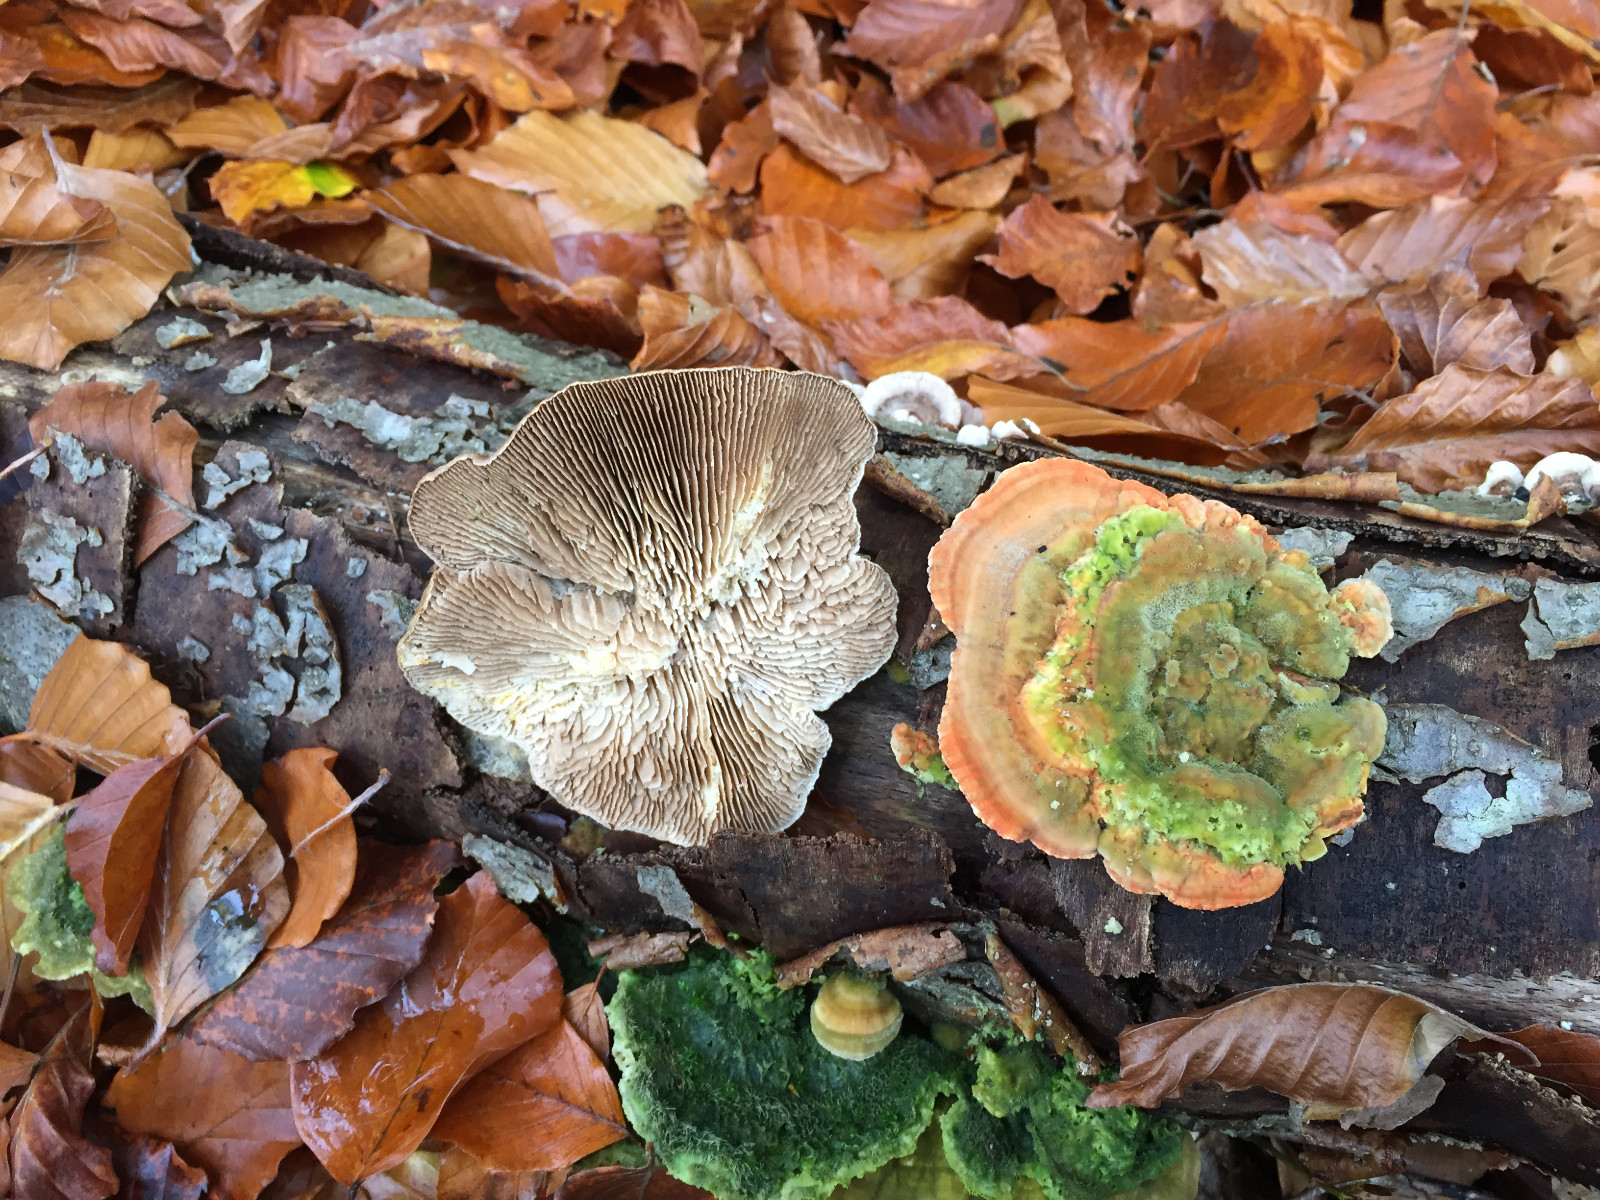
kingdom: Fungi
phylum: Basidiomycota
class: Agaricomycetes
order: Polyporales
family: Polyporaceae
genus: Lenzites
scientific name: Lenzites betulinus
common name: birke-læderporesvamp
